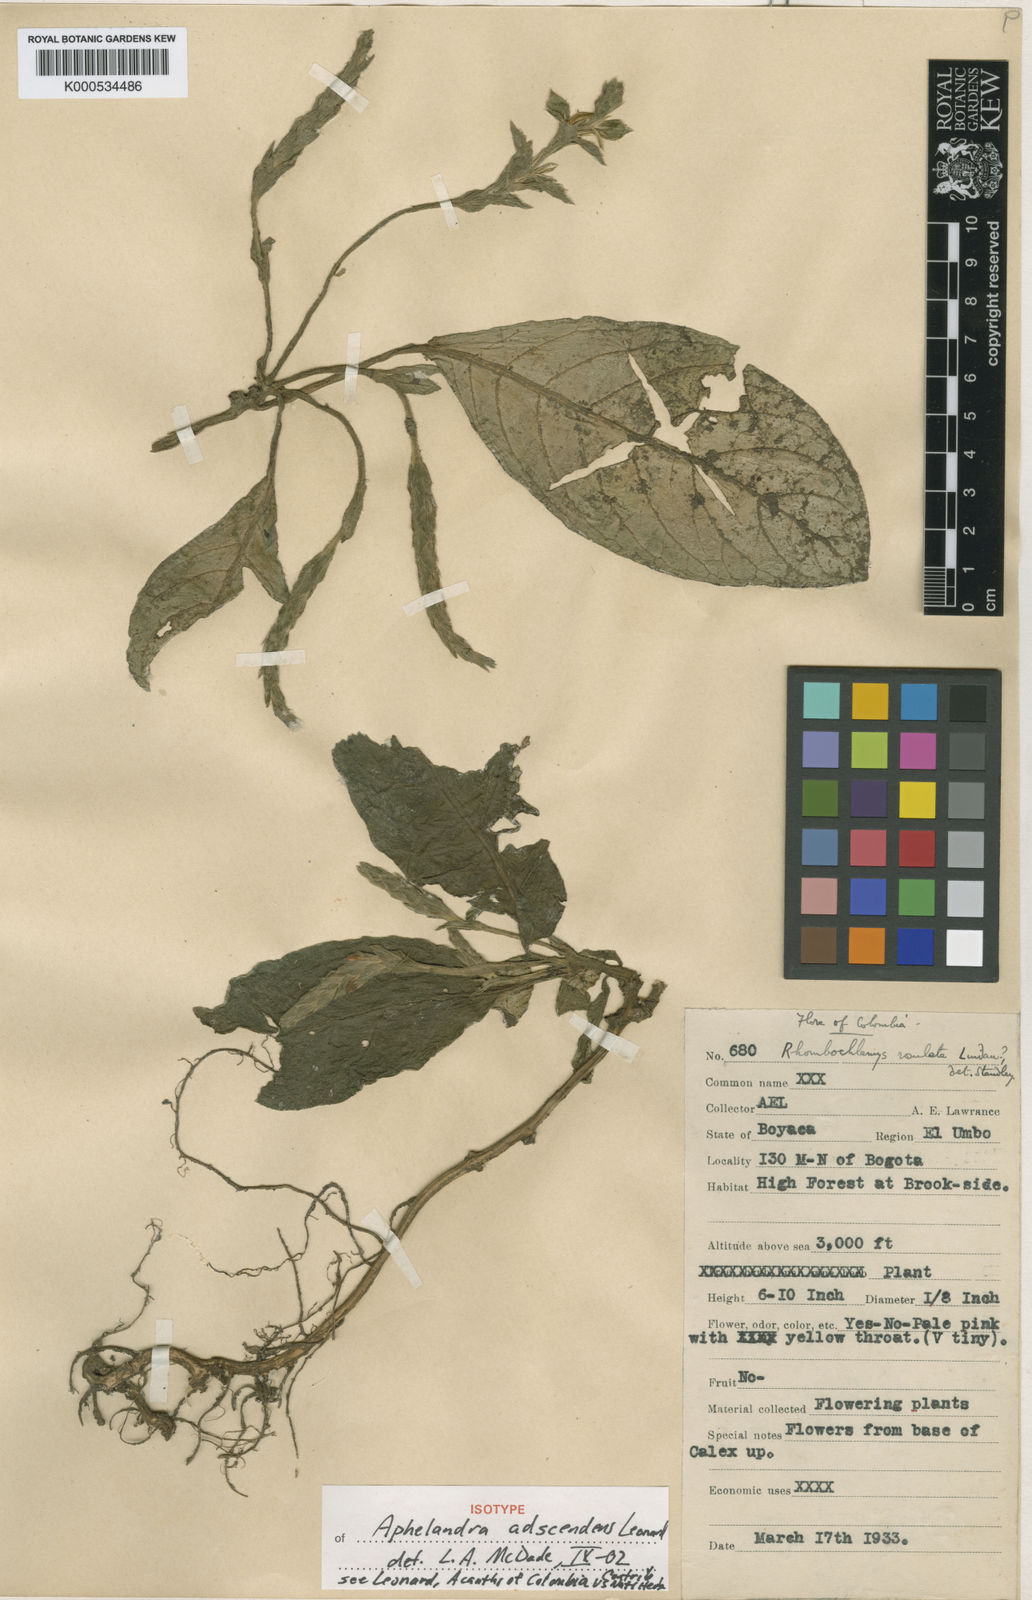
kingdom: Plantae
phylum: Tracheophyta
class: Magnoliopsida
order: Lamiales
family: Acanthaceae
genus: Aphelandra
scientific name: Aphelandra rosulata
